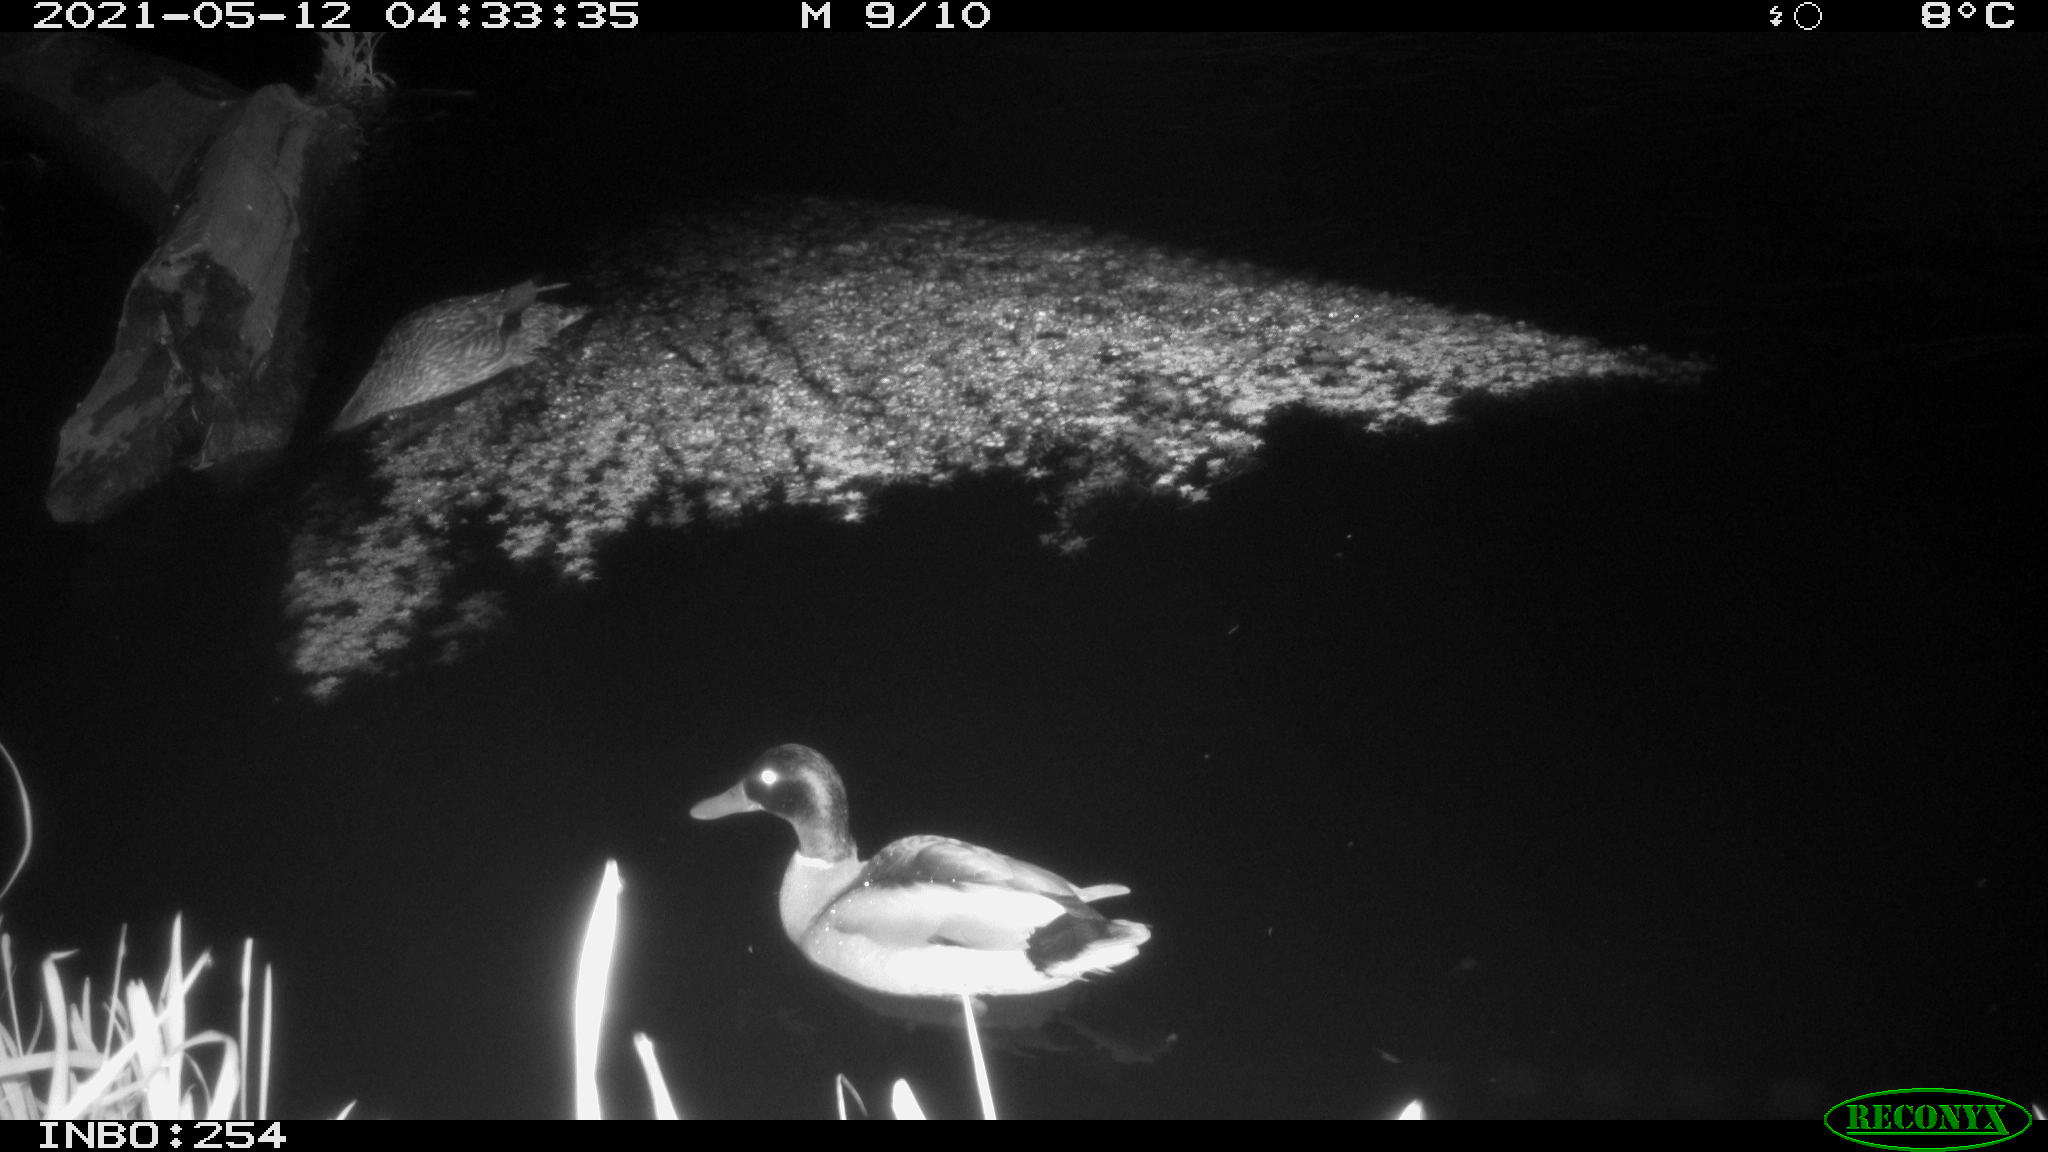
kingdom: Animalia
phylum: Chordata
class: Aves
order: Anseriformes
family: Anatidae
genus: Anas
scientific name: Anas
